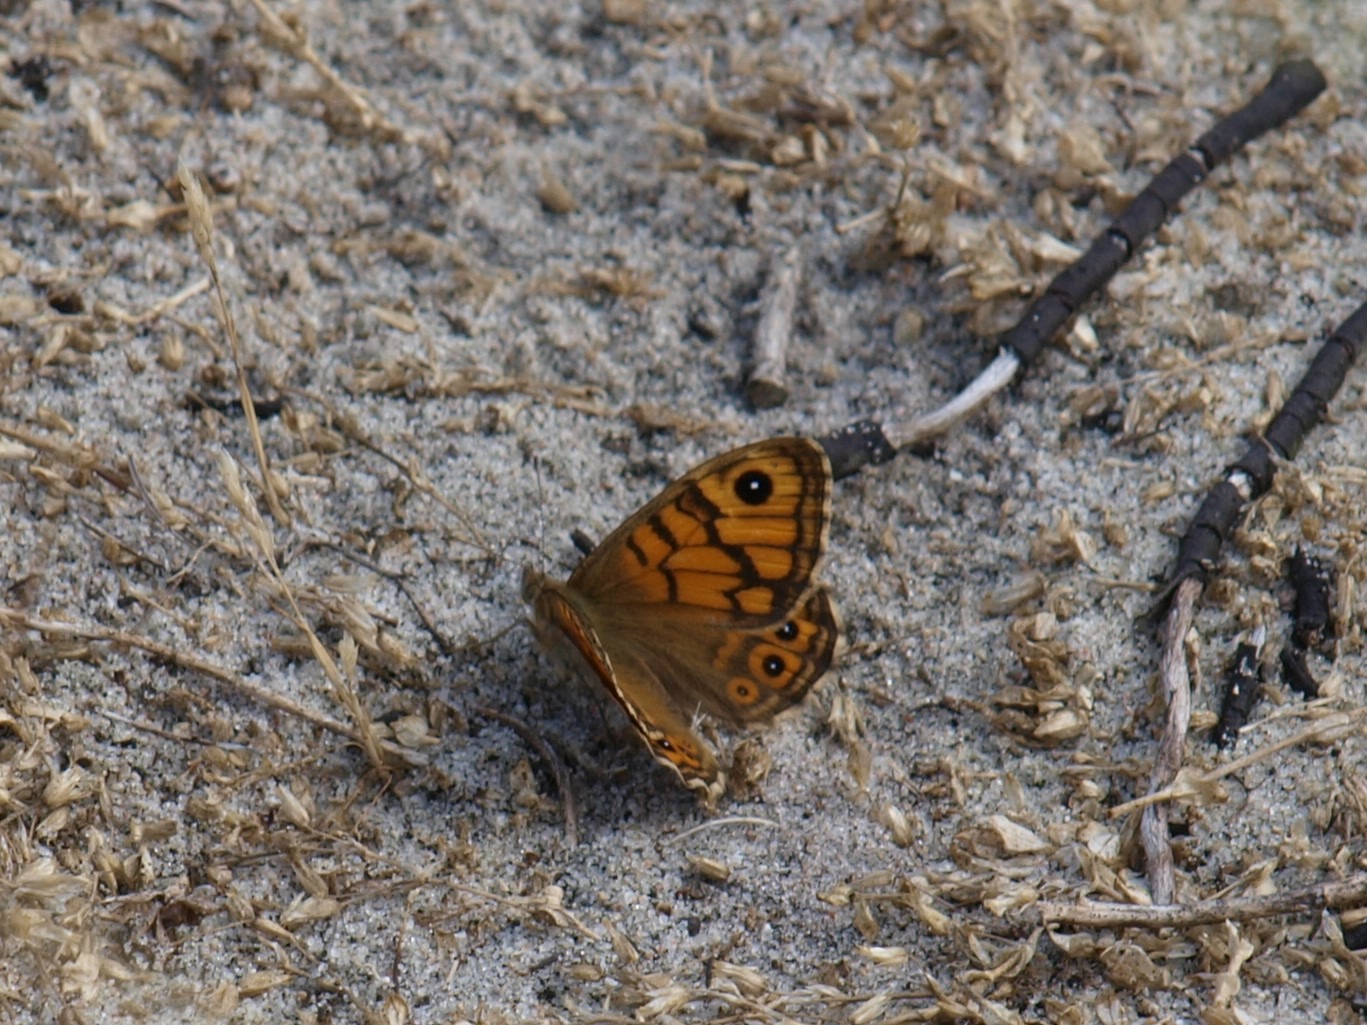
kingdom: Animalia
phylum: Arthropoda
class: Insecta
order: Lepidoptera
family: Nymphalidae
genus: Pararge
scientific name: Pararge Lasiommata megera
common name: Vejrandøje
